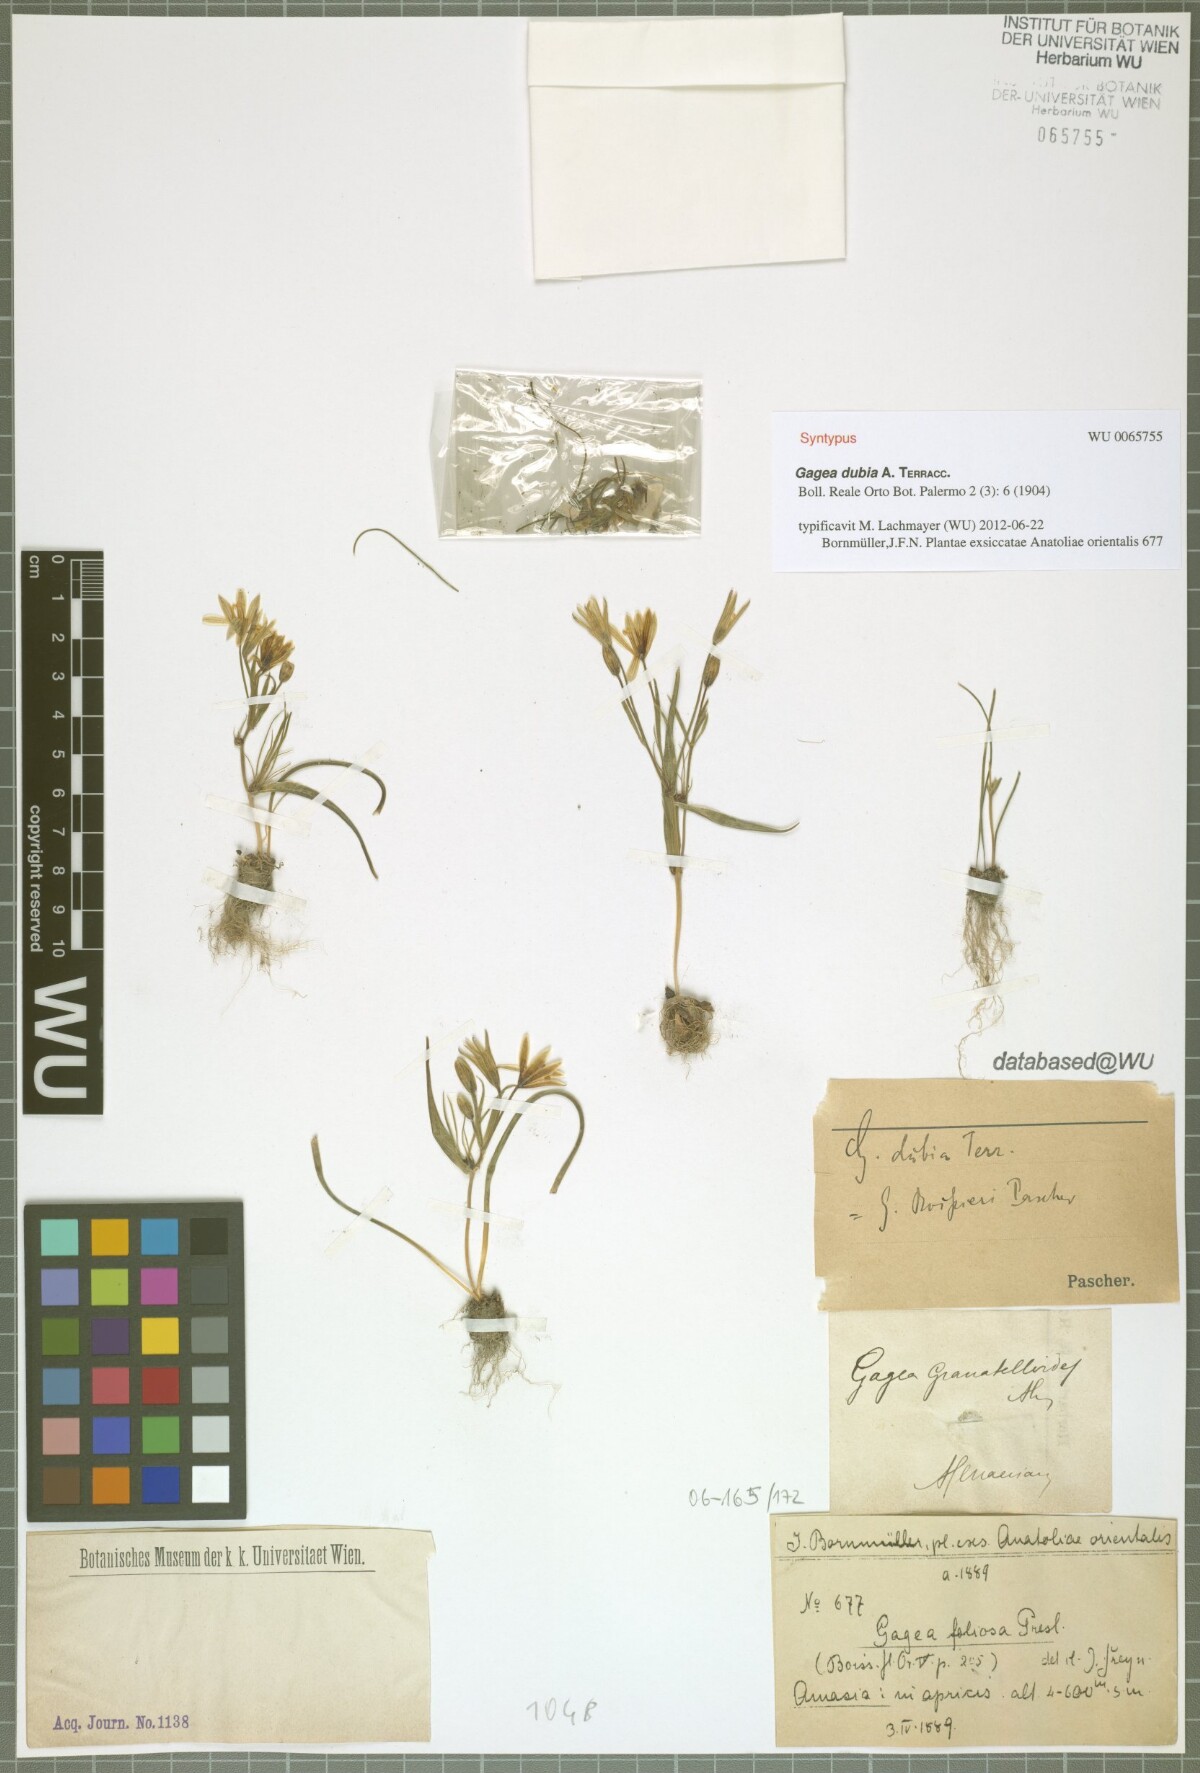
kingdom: Plantae
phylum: Tracheophyta
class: Liliopsida
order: Liliales
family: Liliaceae
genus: Gagea
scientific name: Gagea dubia
